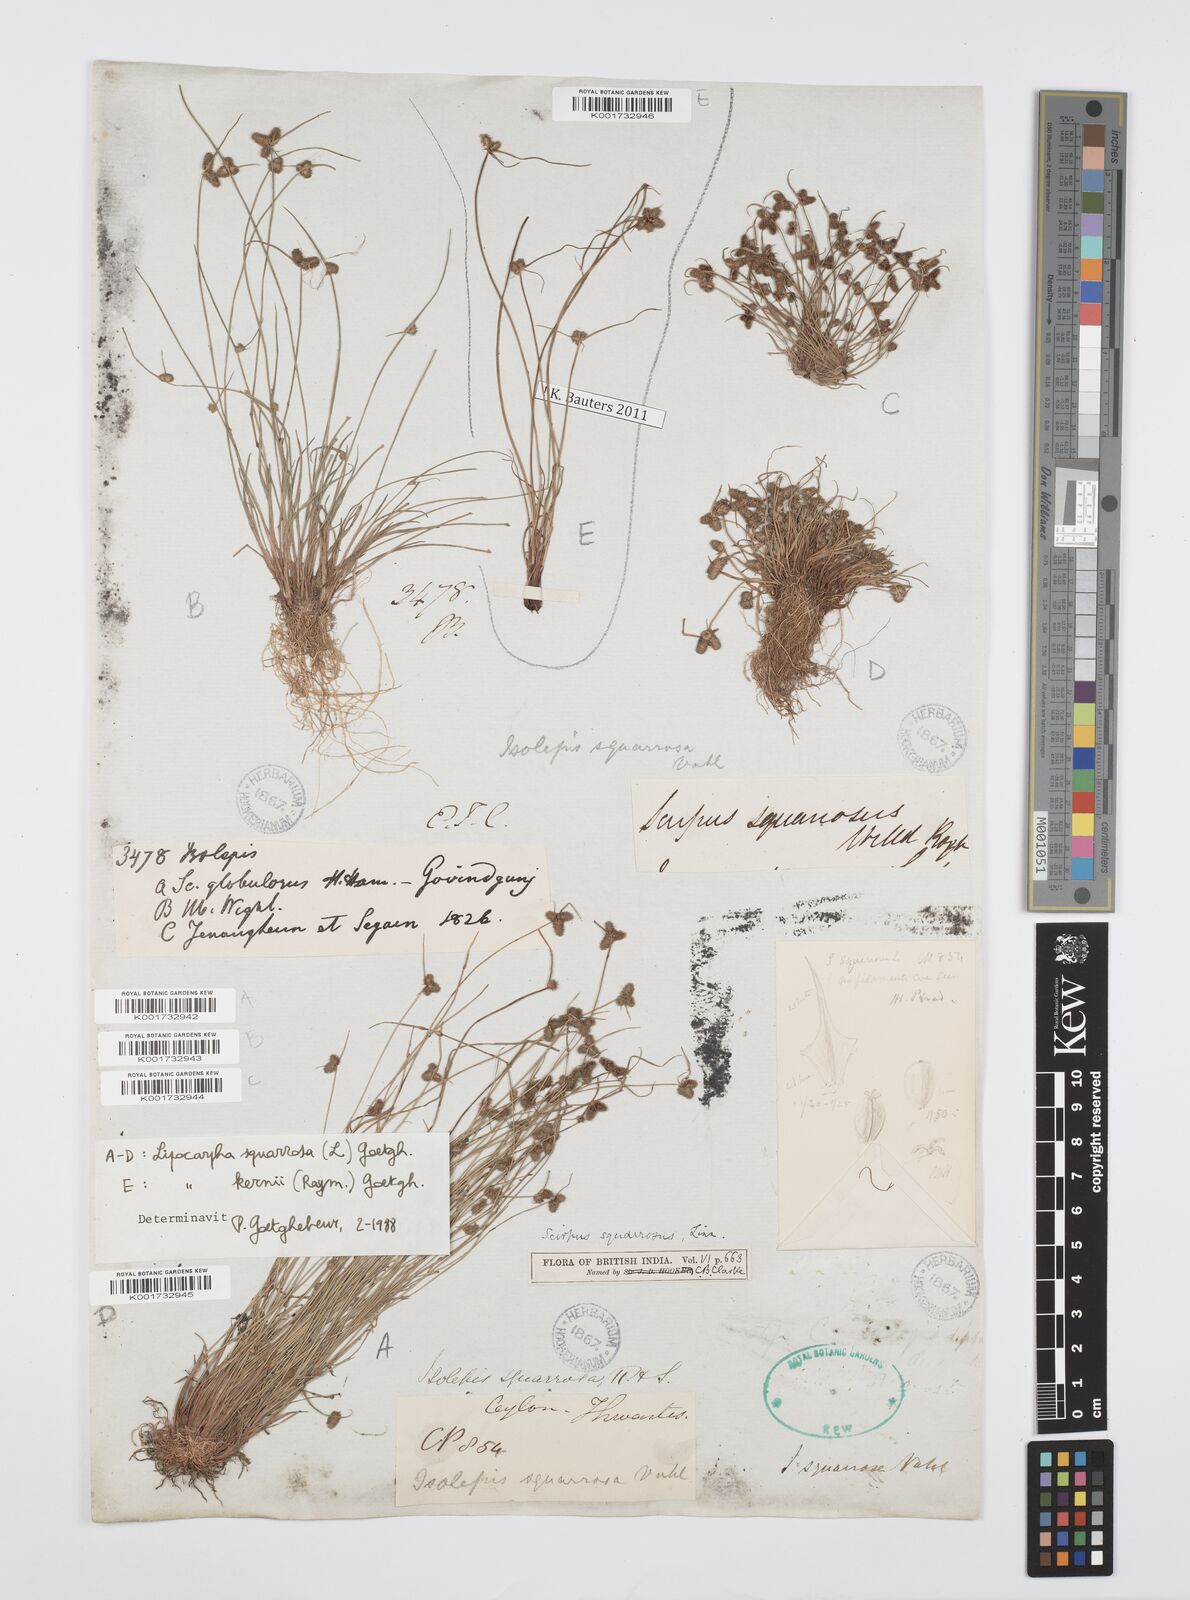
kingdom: Plantae
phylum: Tracheophyta
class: Liliopsida
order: Poales
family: Cyperaceae
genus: Cyperus
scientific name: Cyperus squarrosus
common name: Awned cyperus
